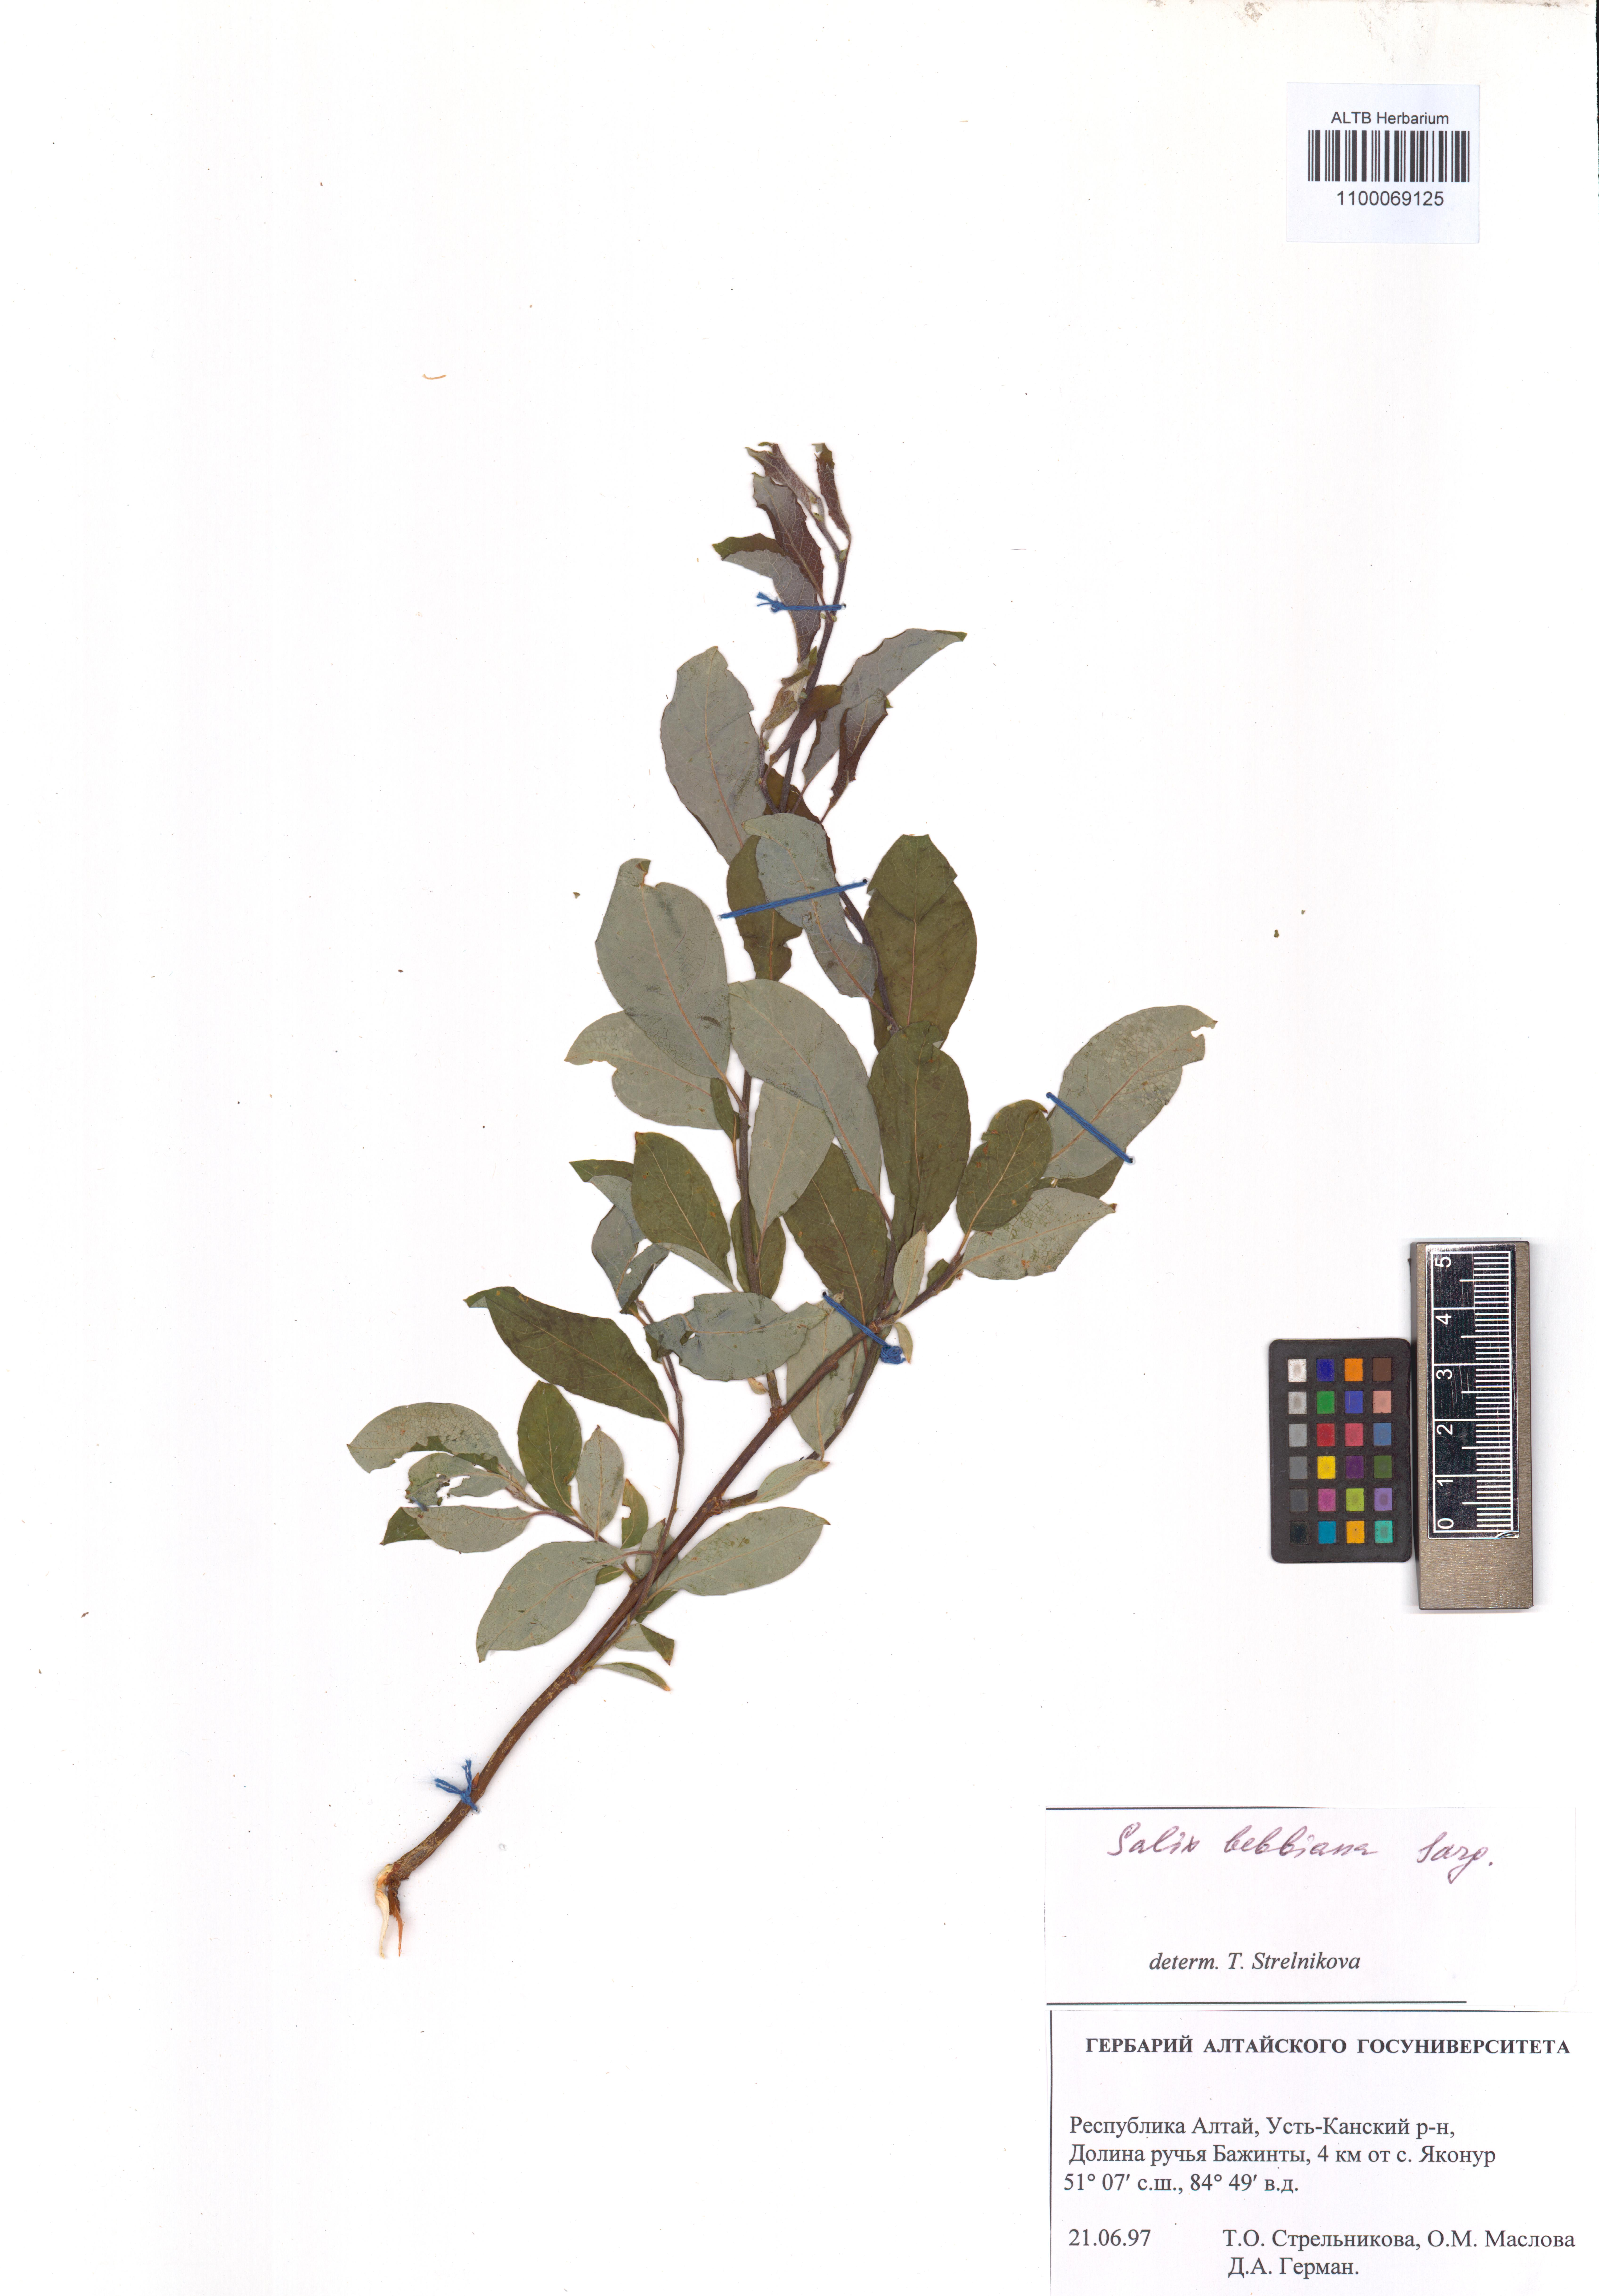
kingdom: Plantae
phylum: Tracheophyta
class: Magnoliopsida
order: Malpighiales
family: Salicaceae
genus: Salix
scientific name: Salix bebbiana
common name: Bebb's willow
